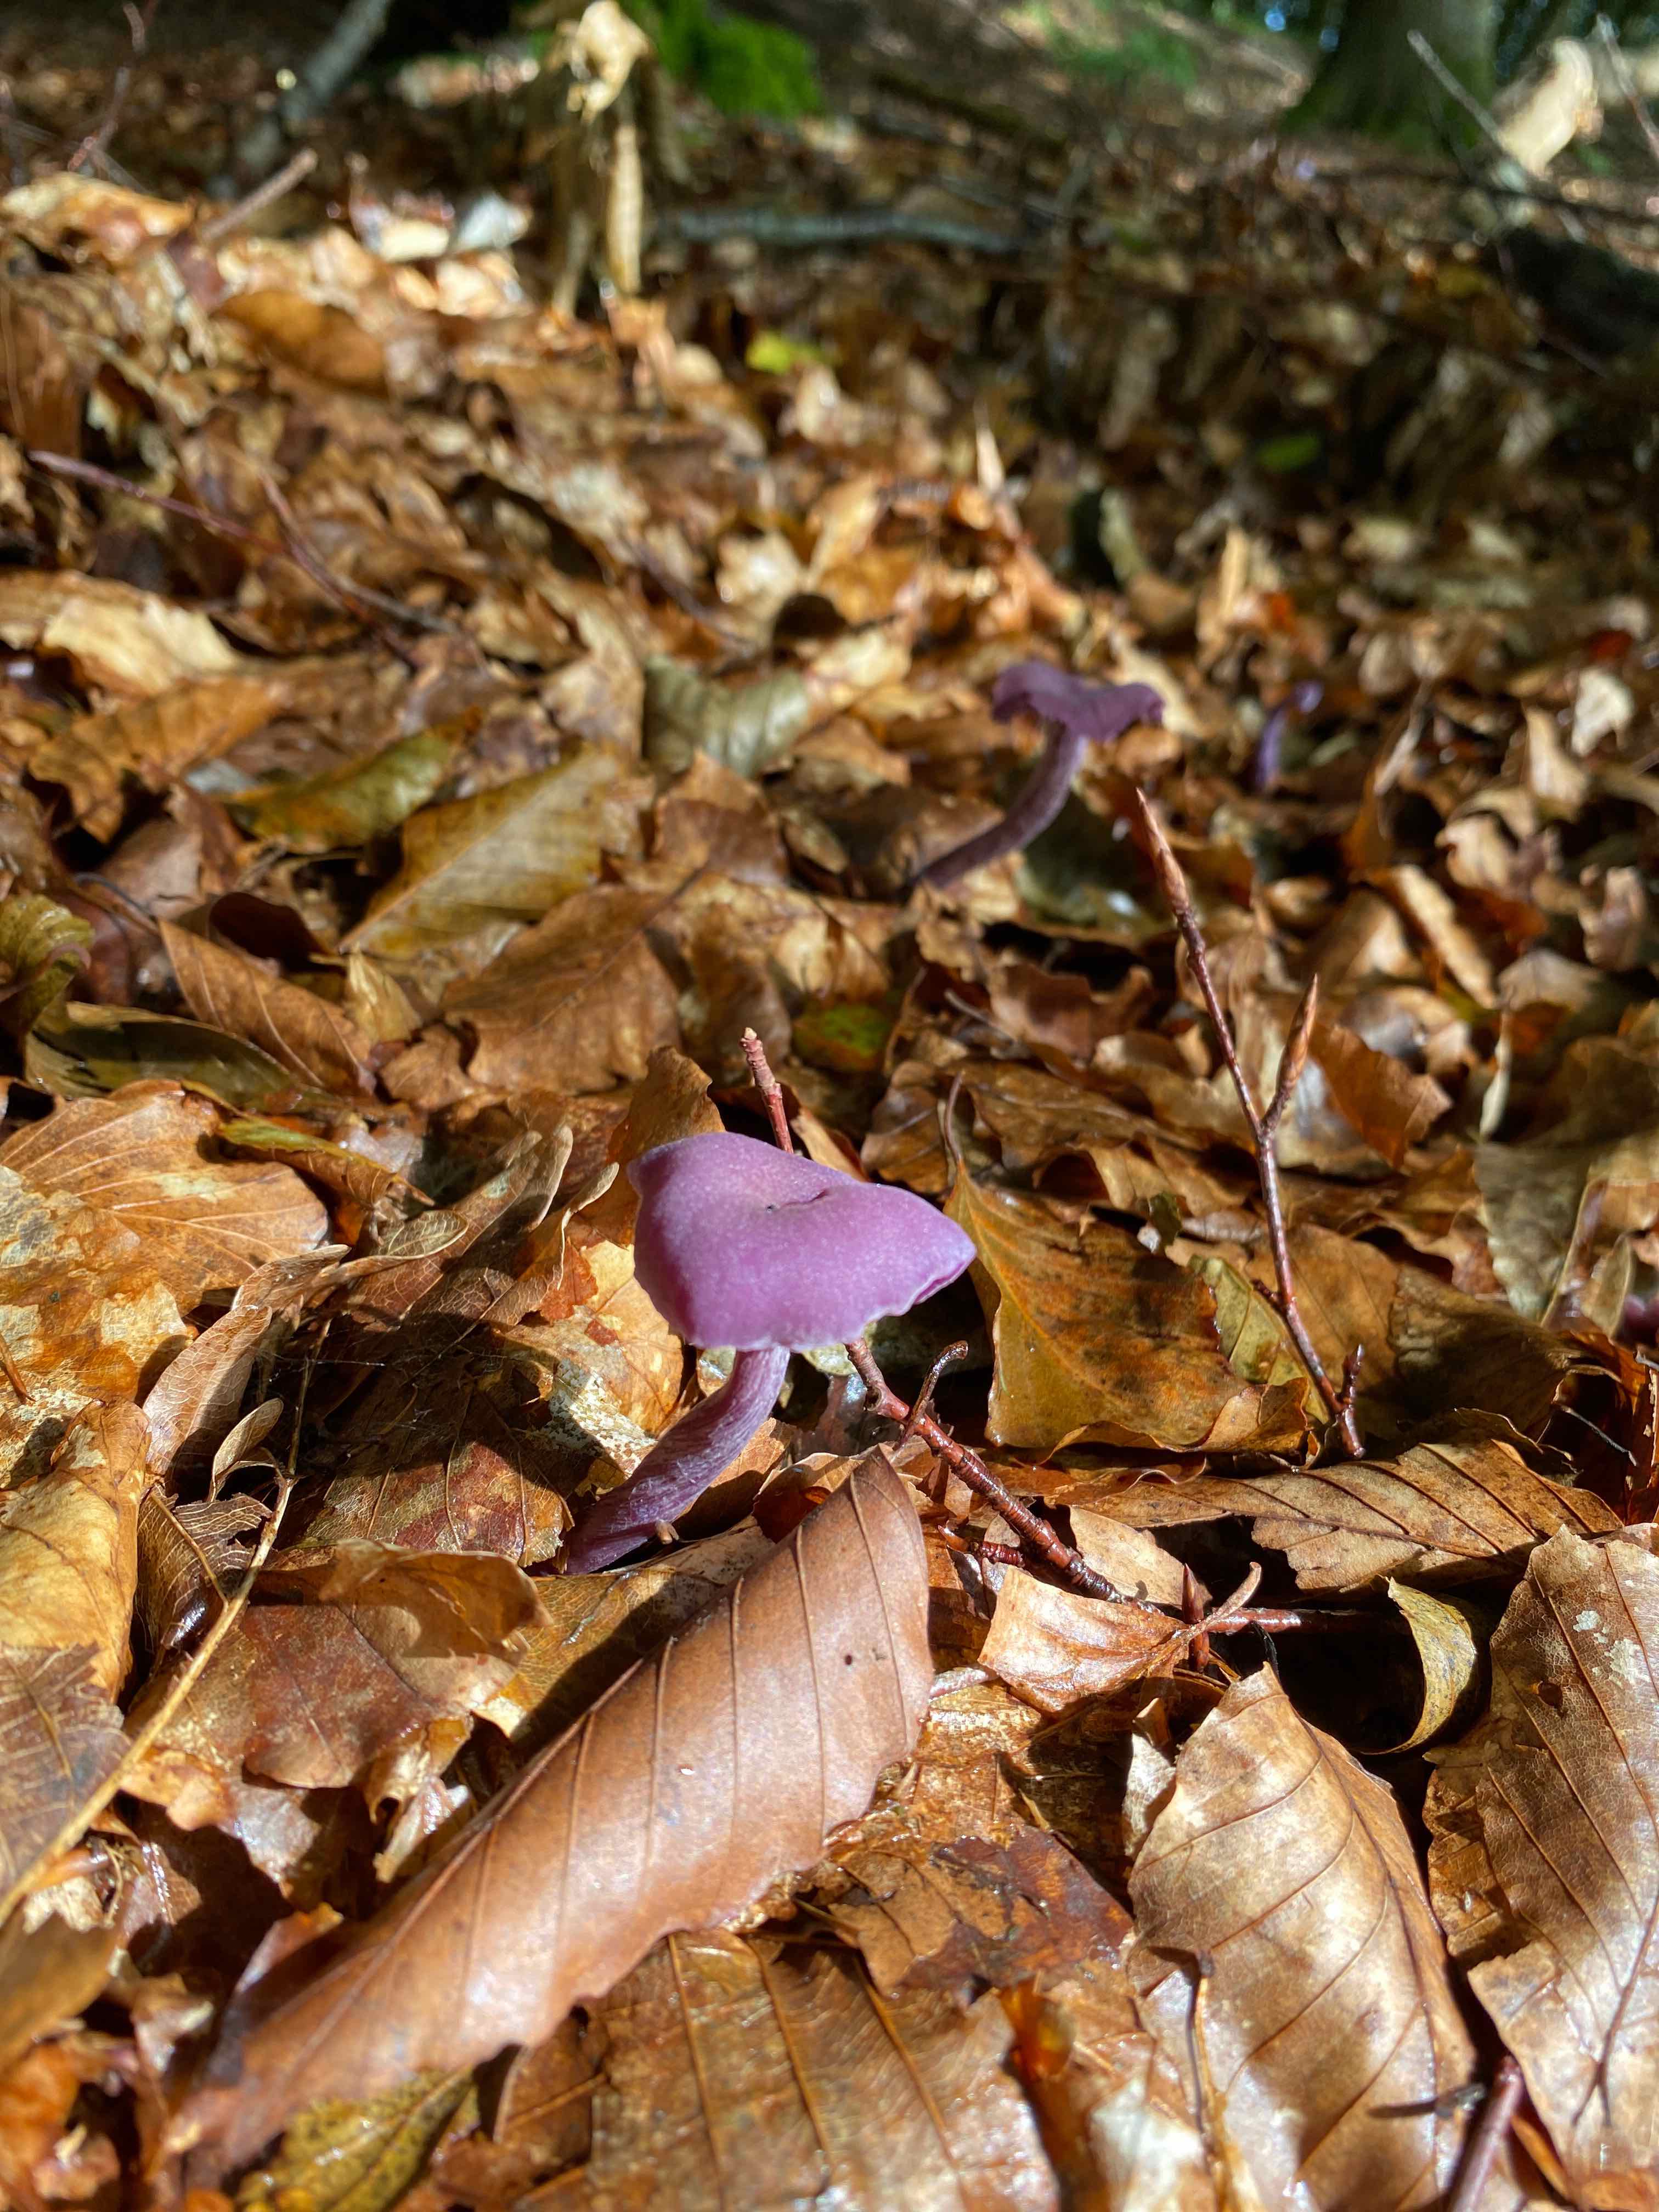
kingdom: Fungi
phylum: Basidiomycota
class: Agaricomycetes
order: Agaricales
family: Hydnangiaceae
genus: Laccaria
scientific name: Laccaria amethystina
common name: violet ametysthat
